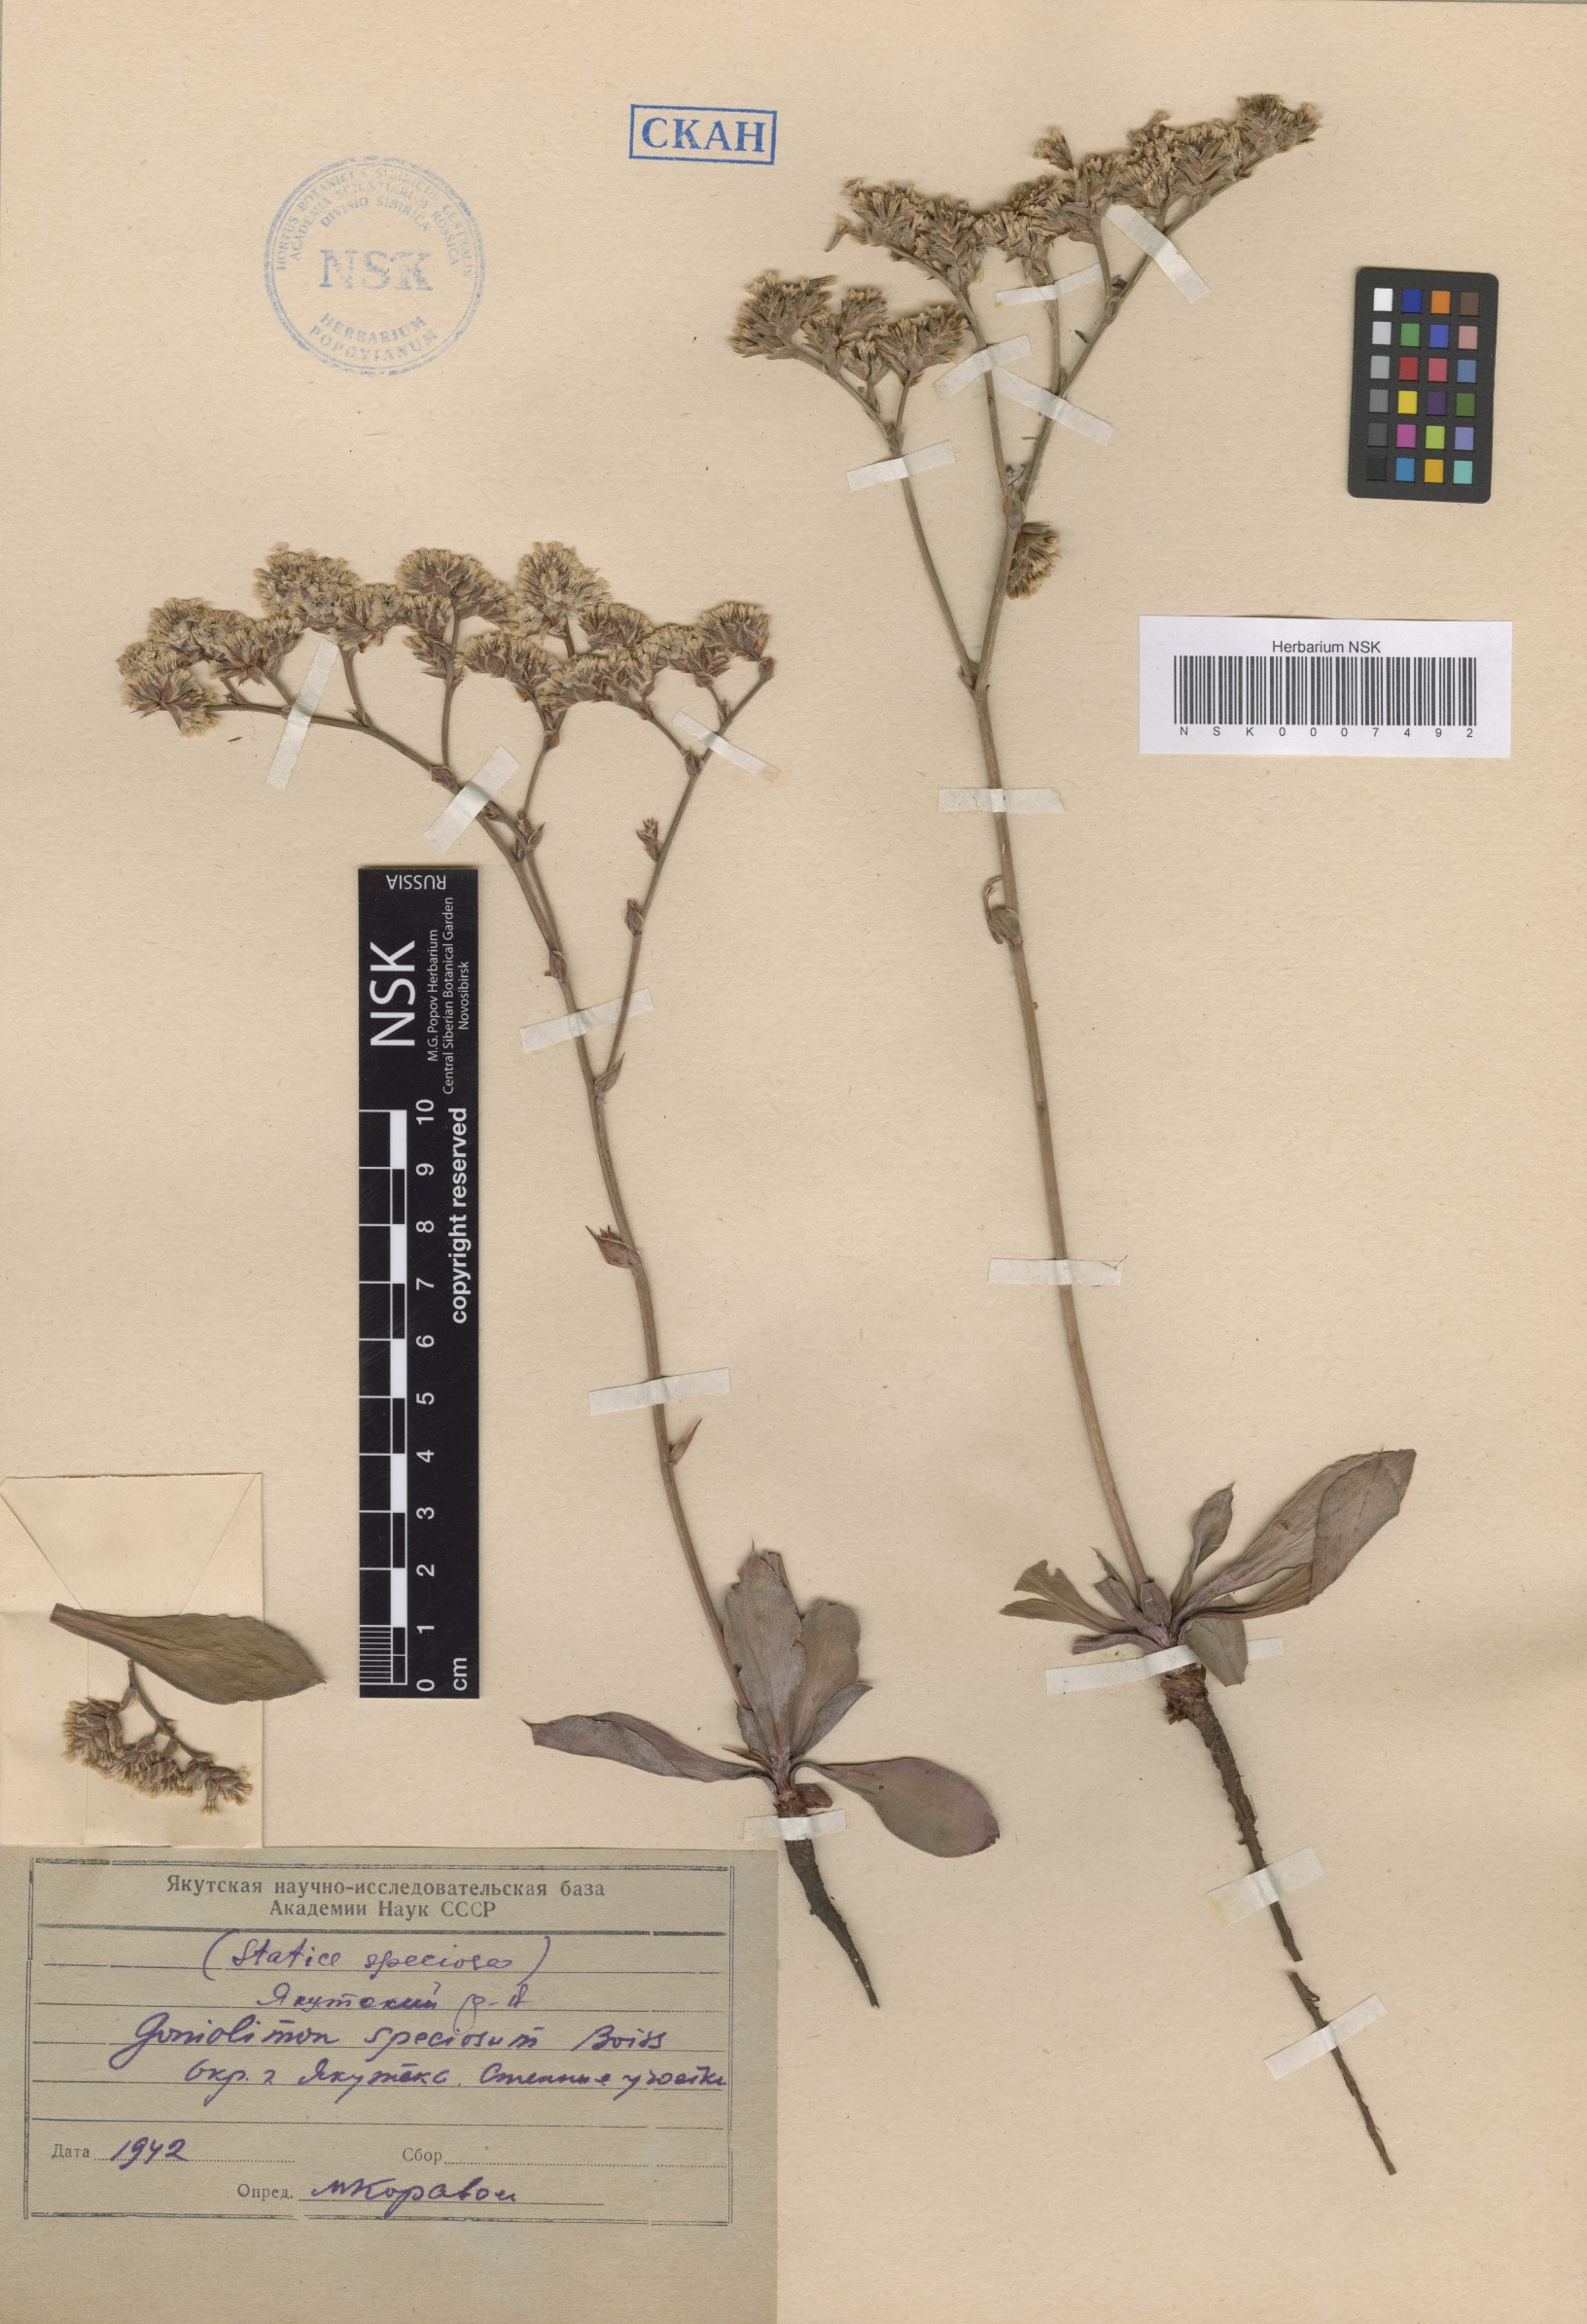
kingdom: Plantae
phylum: Tracheophyta
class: Magnoliopsida
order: Caryophyllales
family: Plumbaginaceae
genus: Goniolimon
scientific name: Goniolimon speciosum
